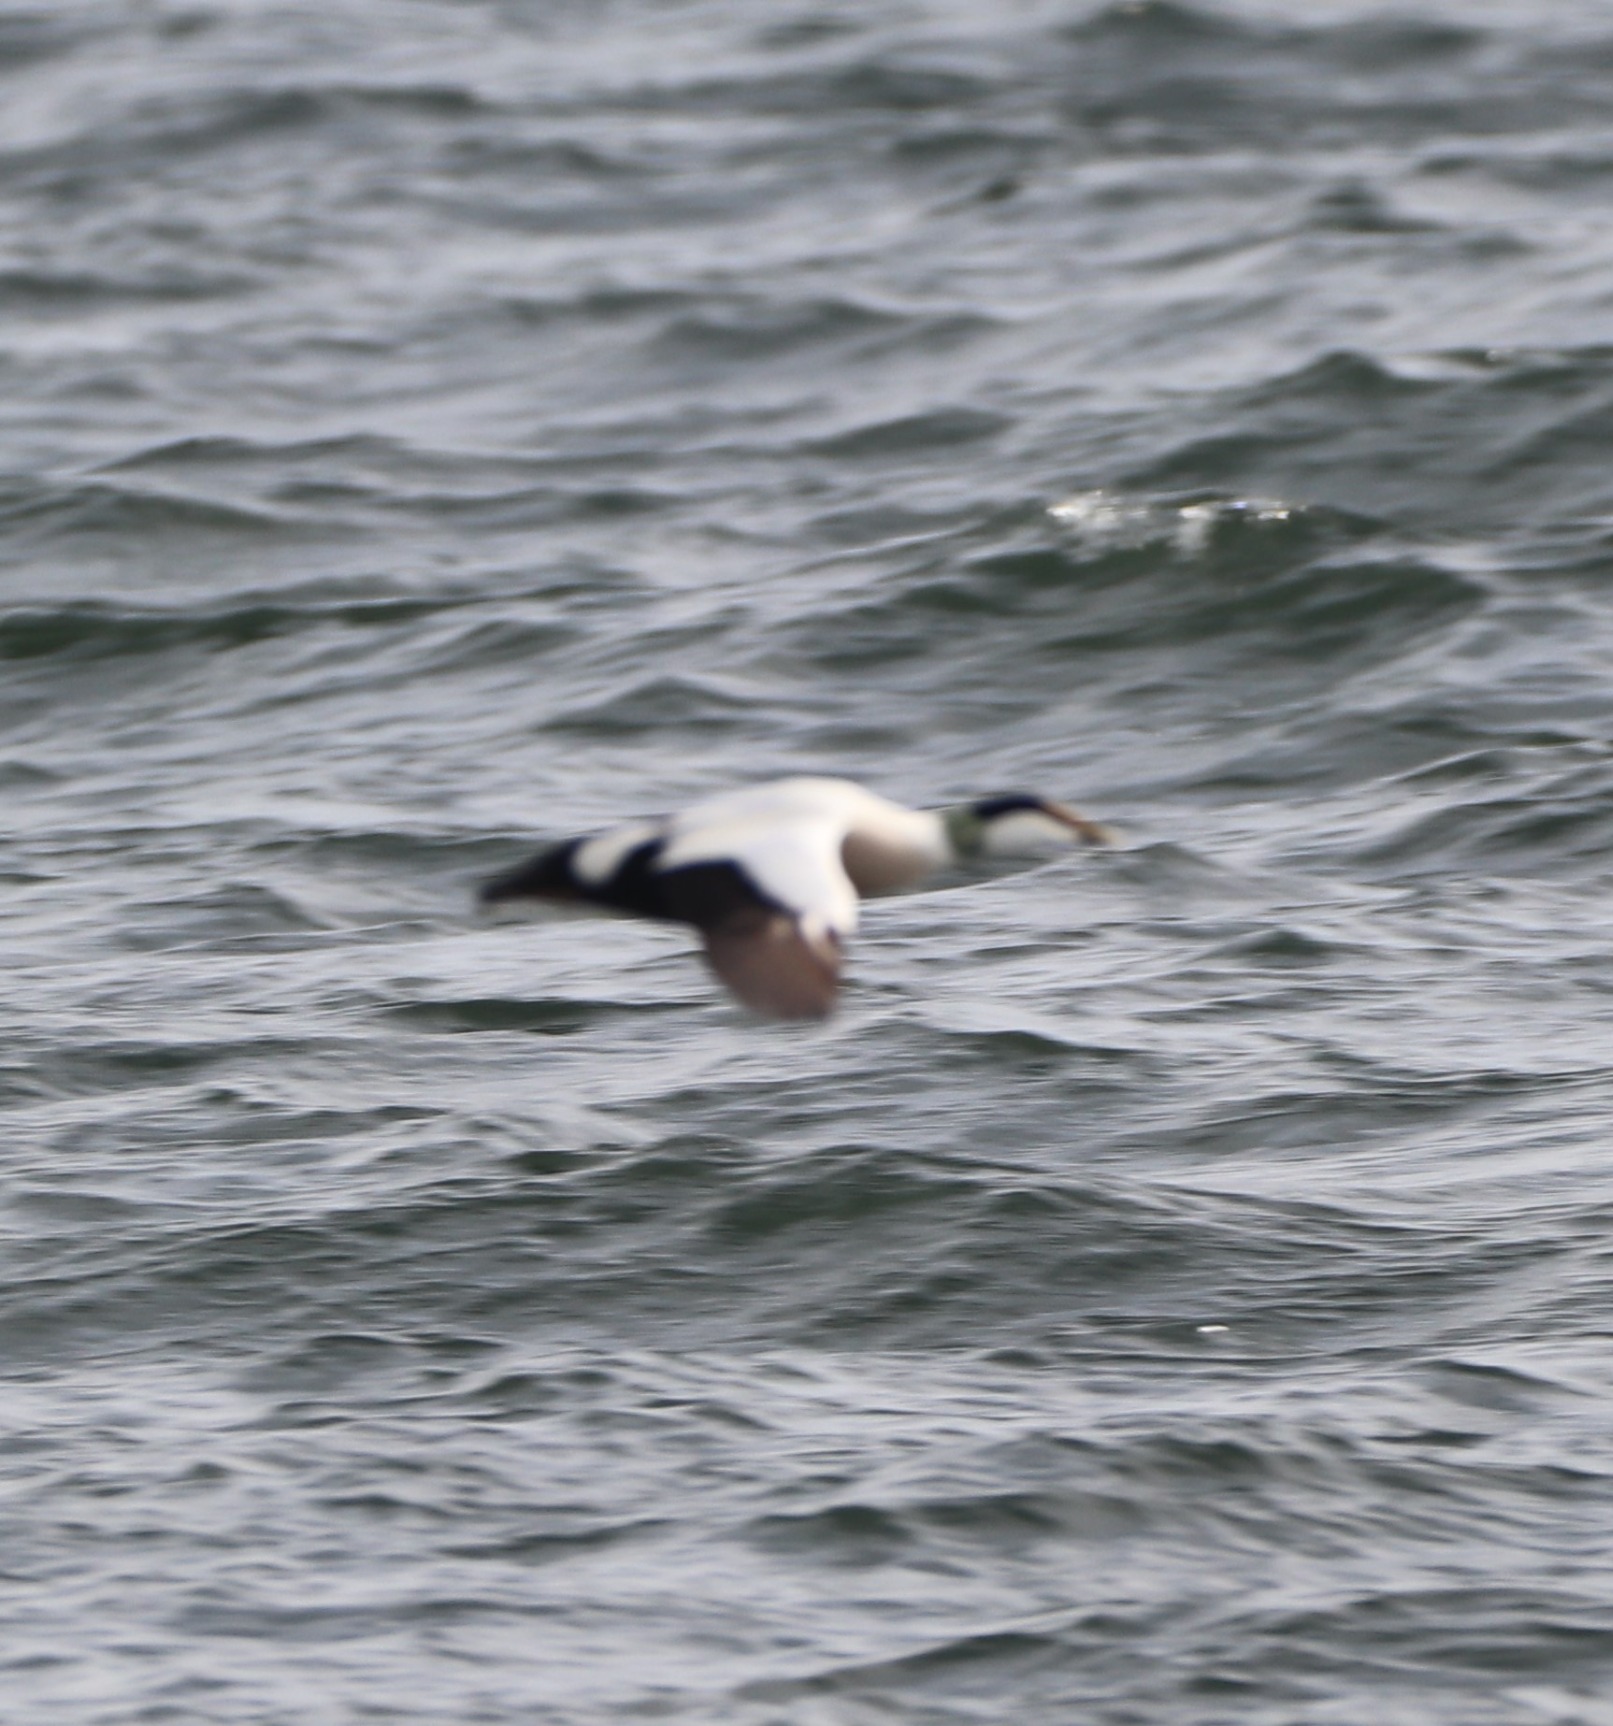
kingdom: Animalia
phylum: Chordata
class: Aves
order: Anseriformes
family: Anatidae
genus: Somateria
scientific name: Somateria mollissima
